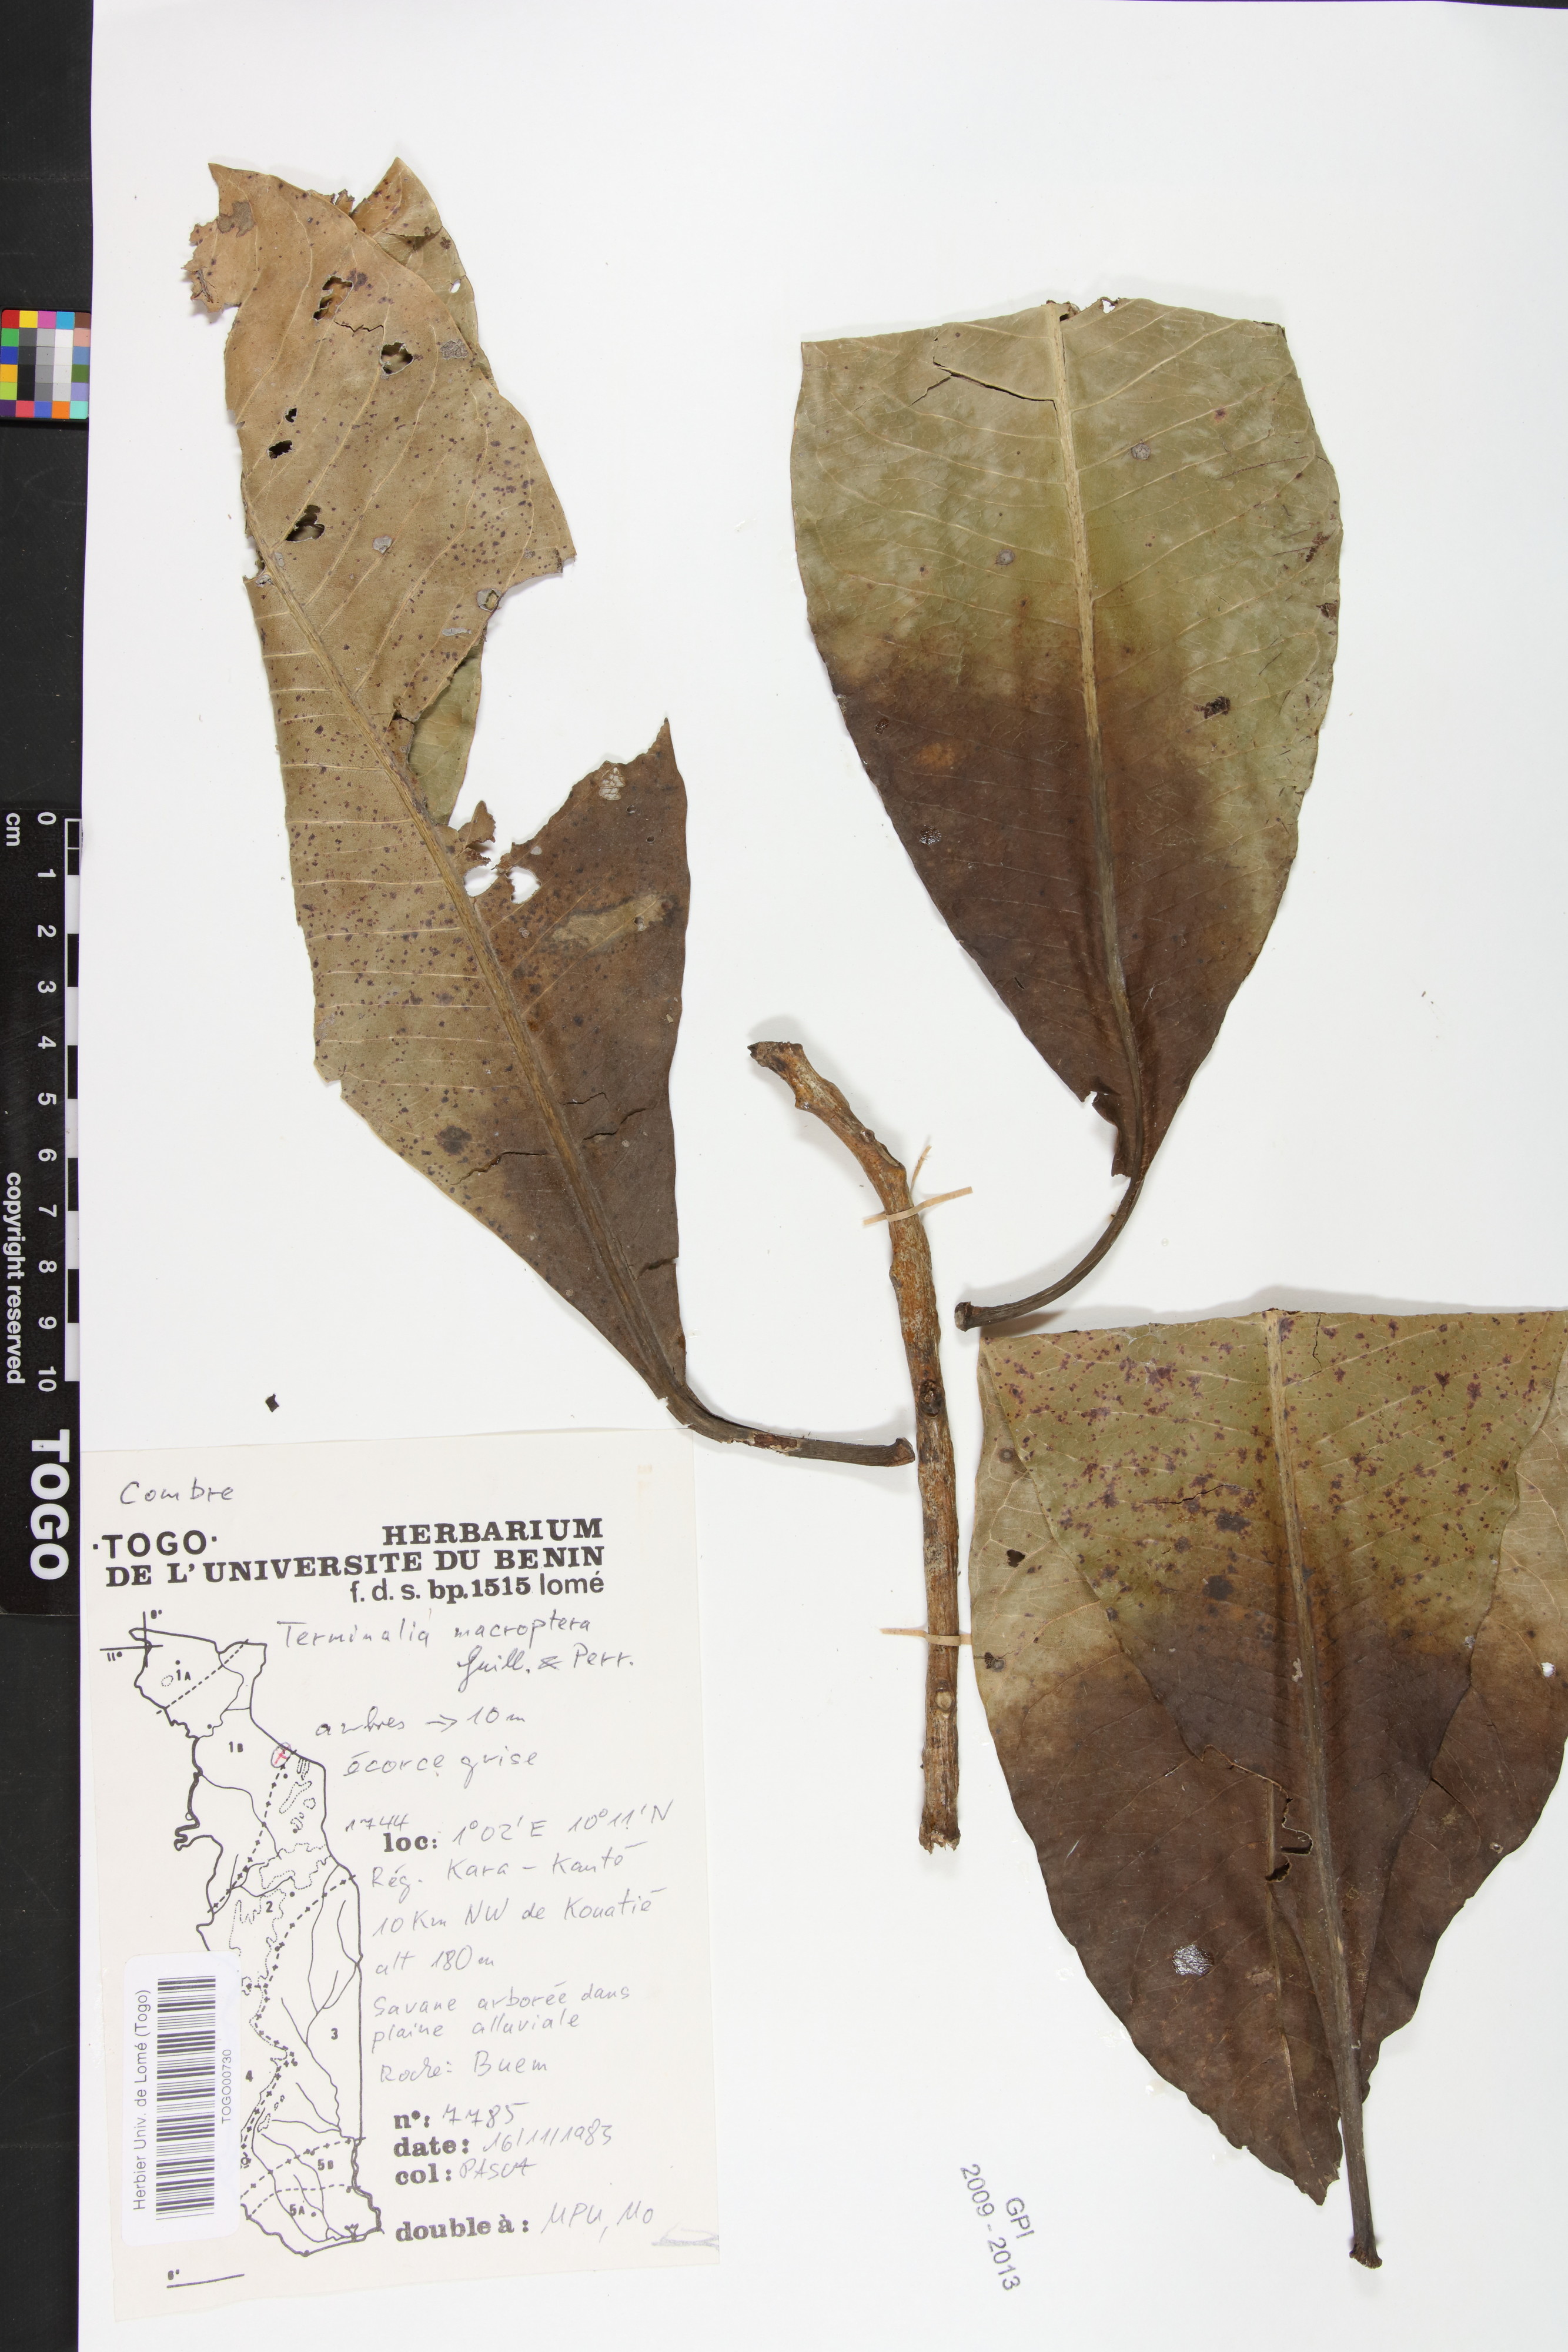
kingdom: Plantae
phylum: Tracheophyta
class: Magnoliopsida
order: Myrtales
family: Combretaceae
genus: Terminalia
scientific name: Terminalia macroptera
